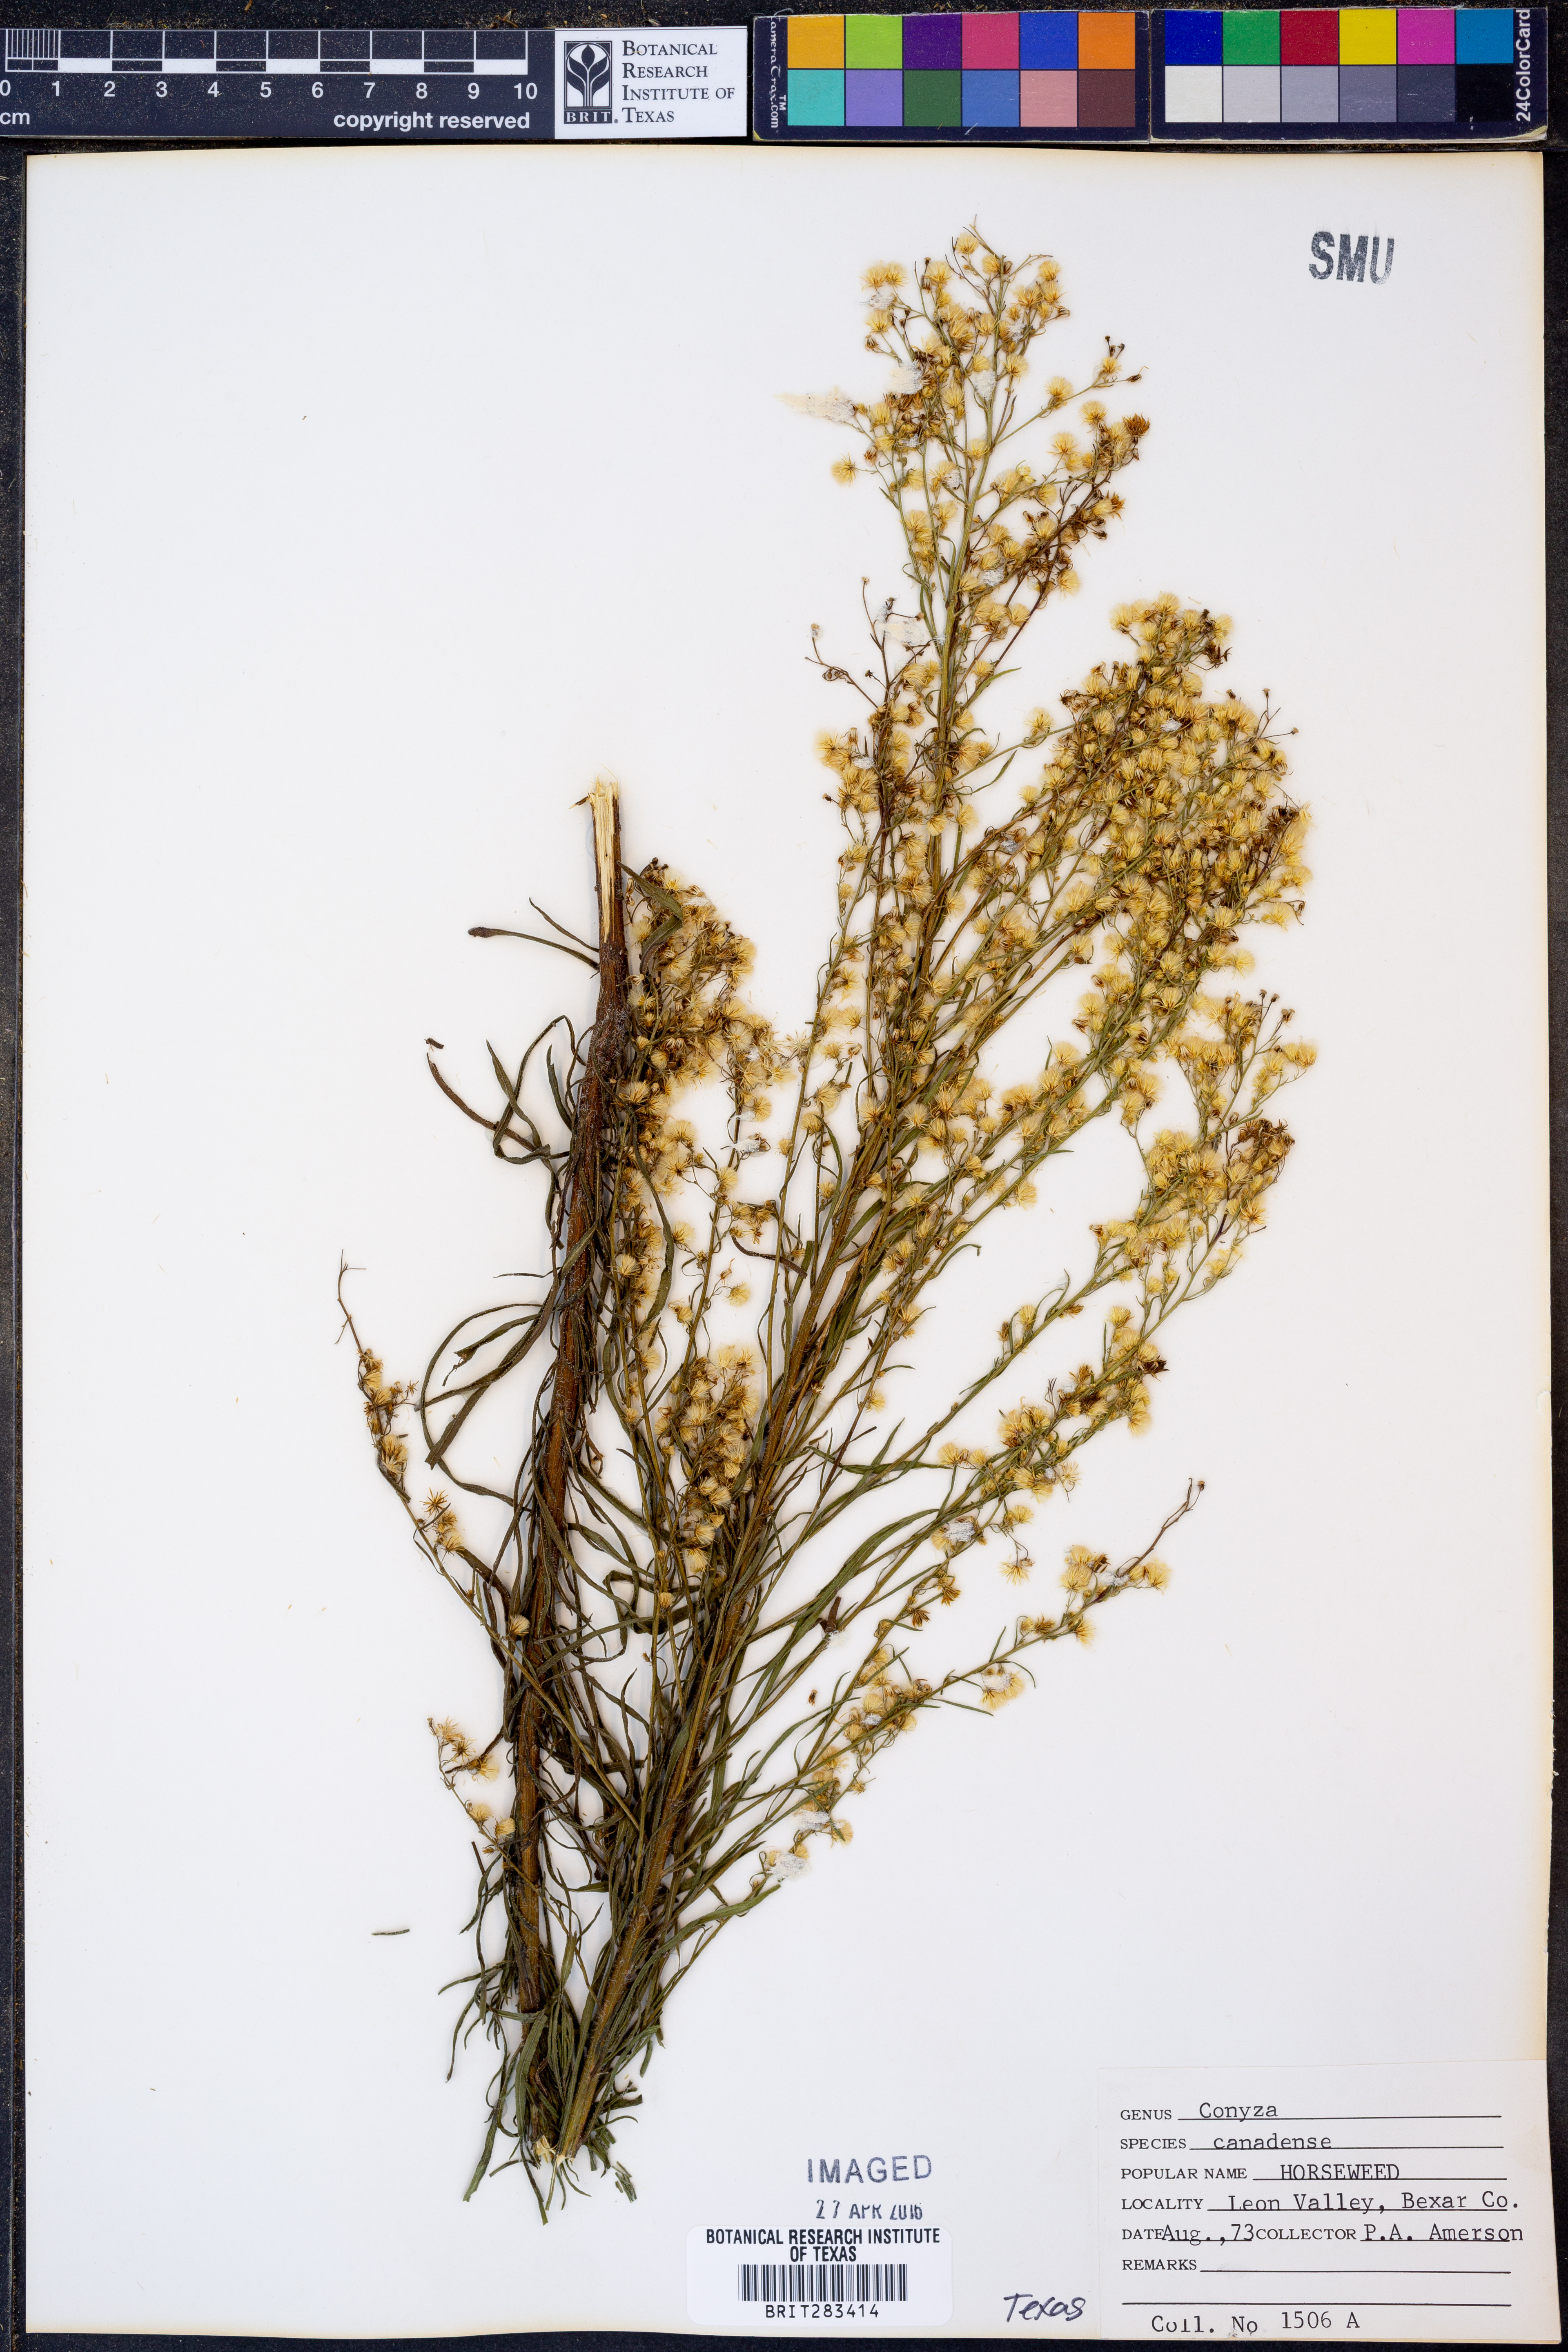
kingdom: Plantae
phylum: Tracheophyta
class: Magnoliopsida
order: Asterales
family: Asteraceae
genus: Erigeron
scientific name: Erigeron canadensis
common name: Canadian fleabane
